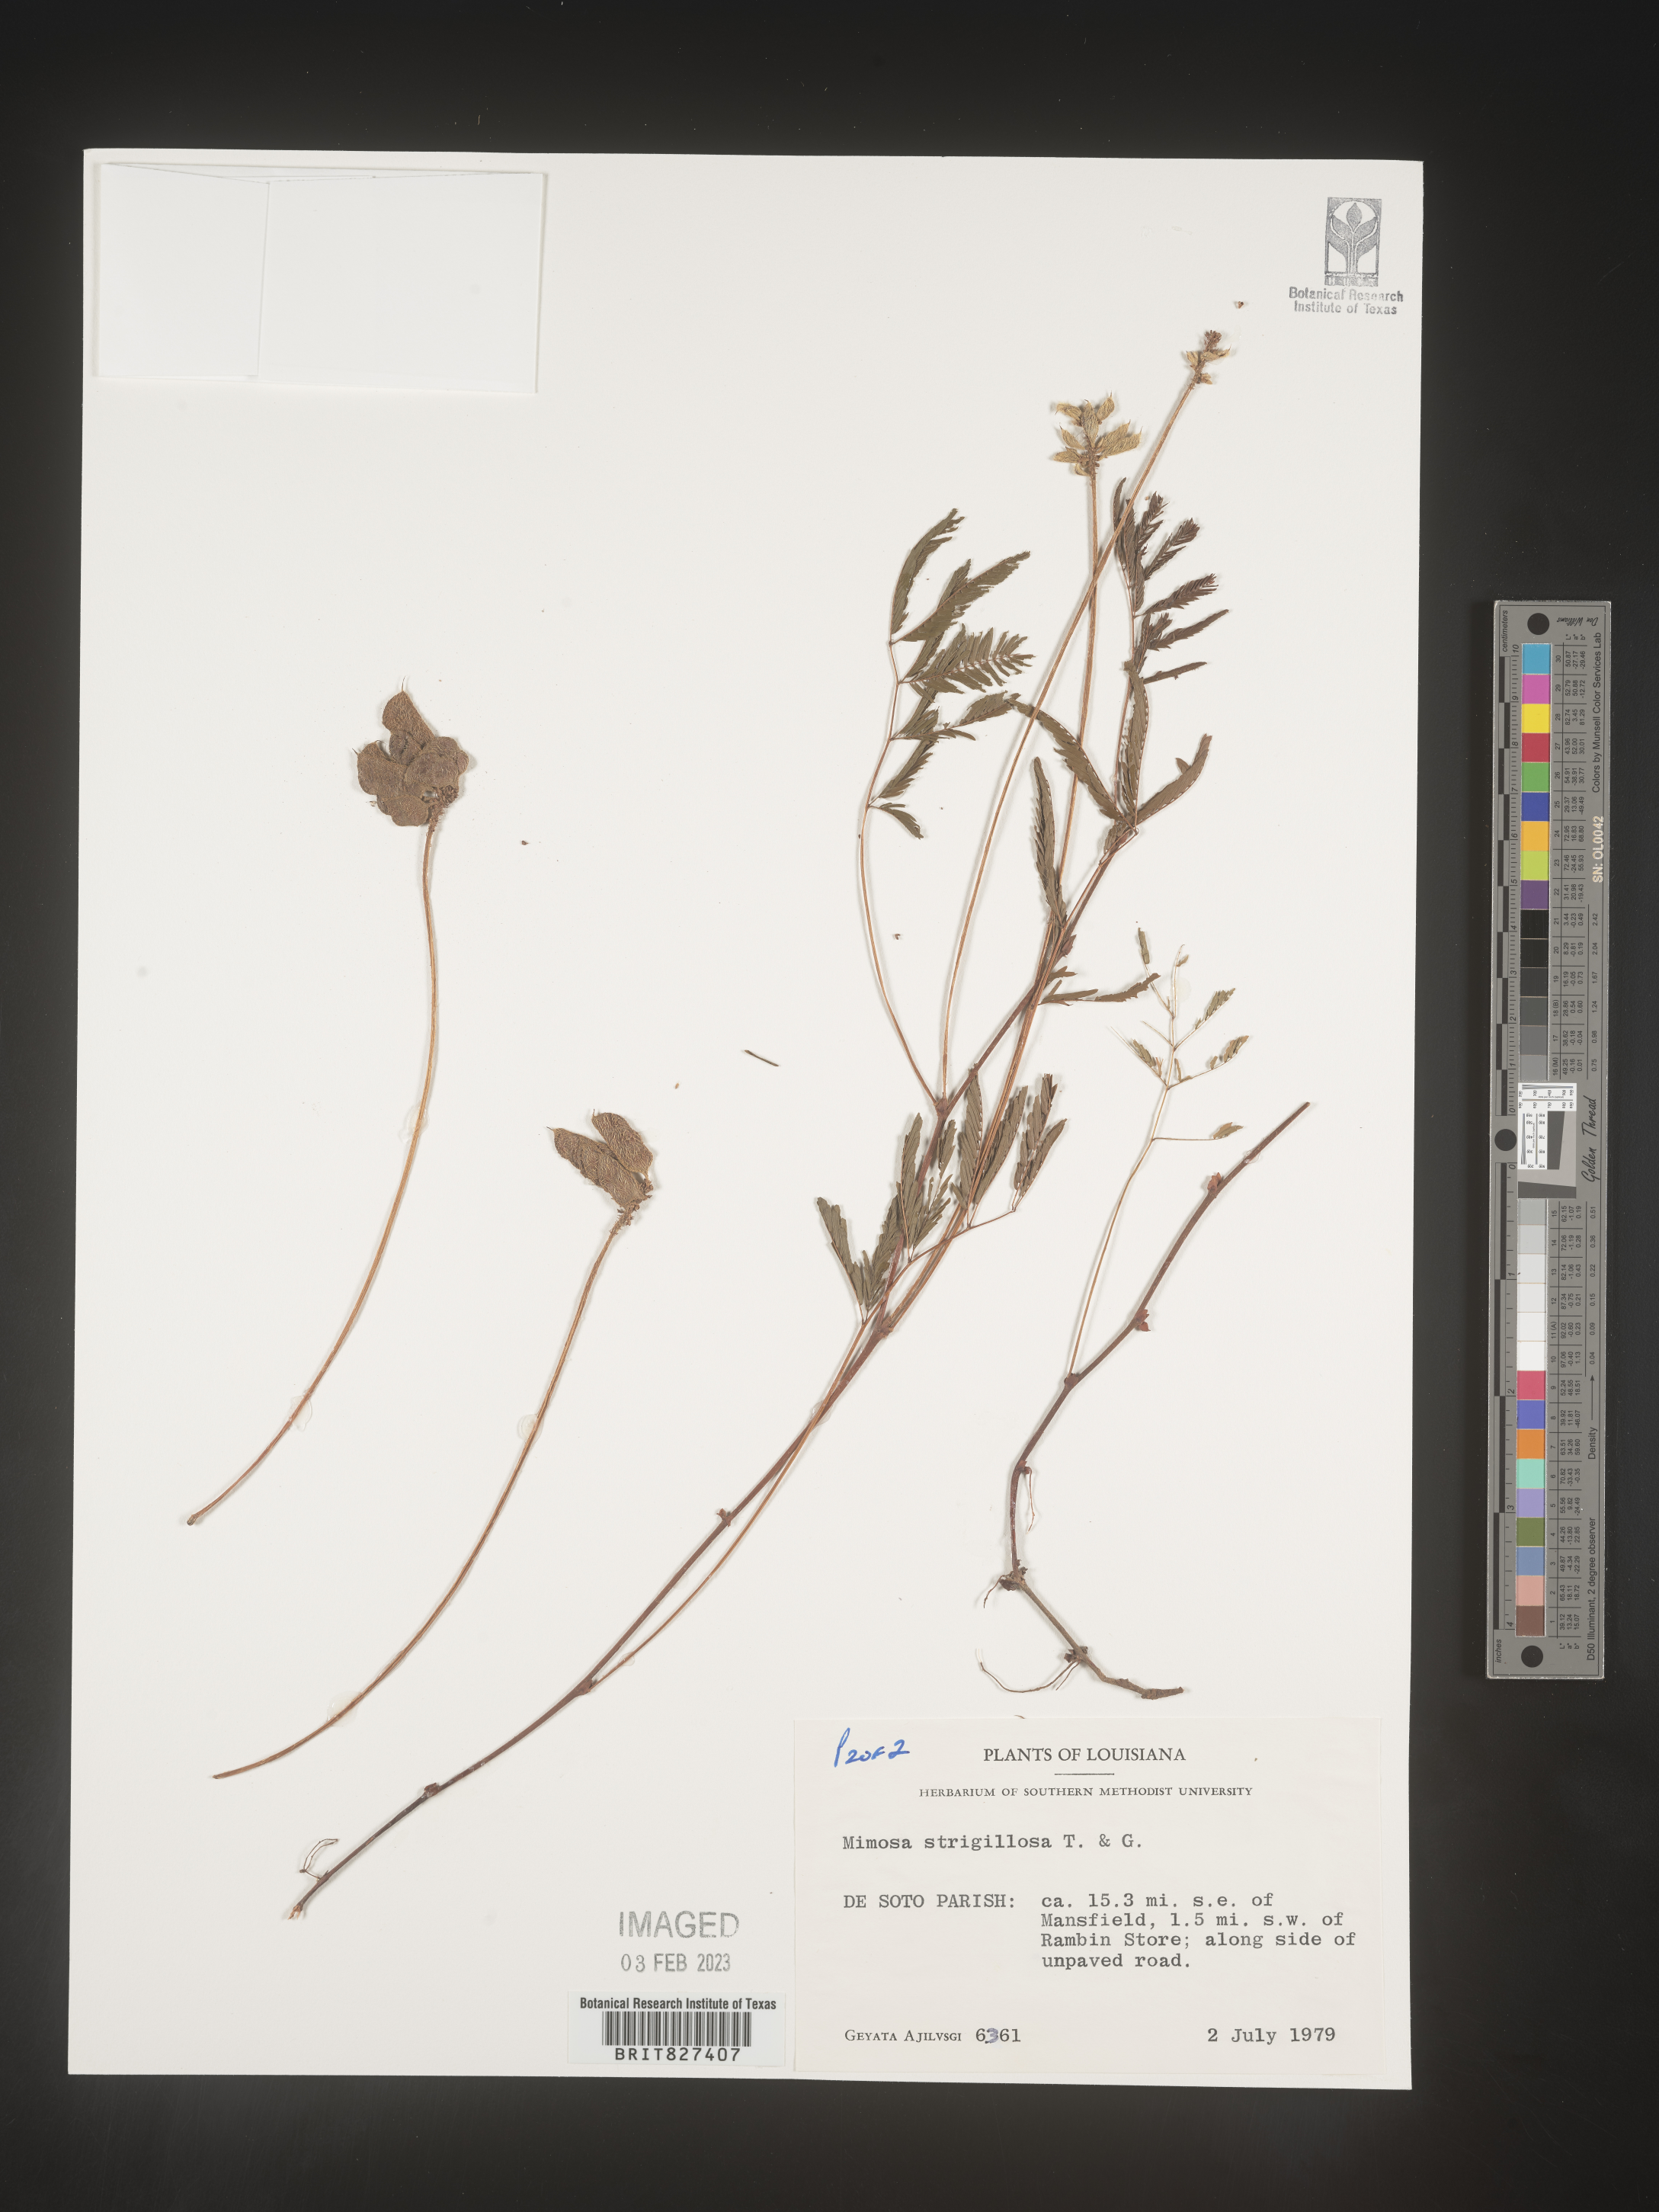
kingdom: Plantae
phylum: Tracheophyta
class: Magnoliopsida
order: Fabales
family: Fabaceae
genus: Mimosa
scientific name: Mimosa strigillosa
